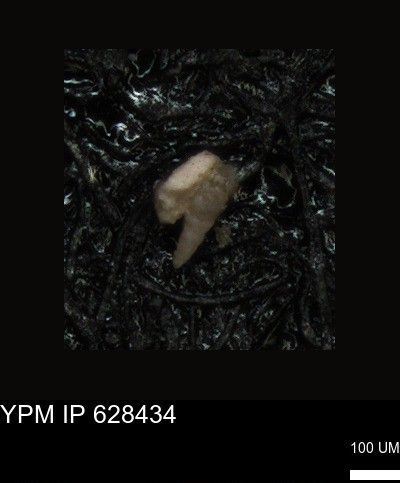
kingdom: Chromista
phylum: Foraminifera
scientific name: Foraminifera
